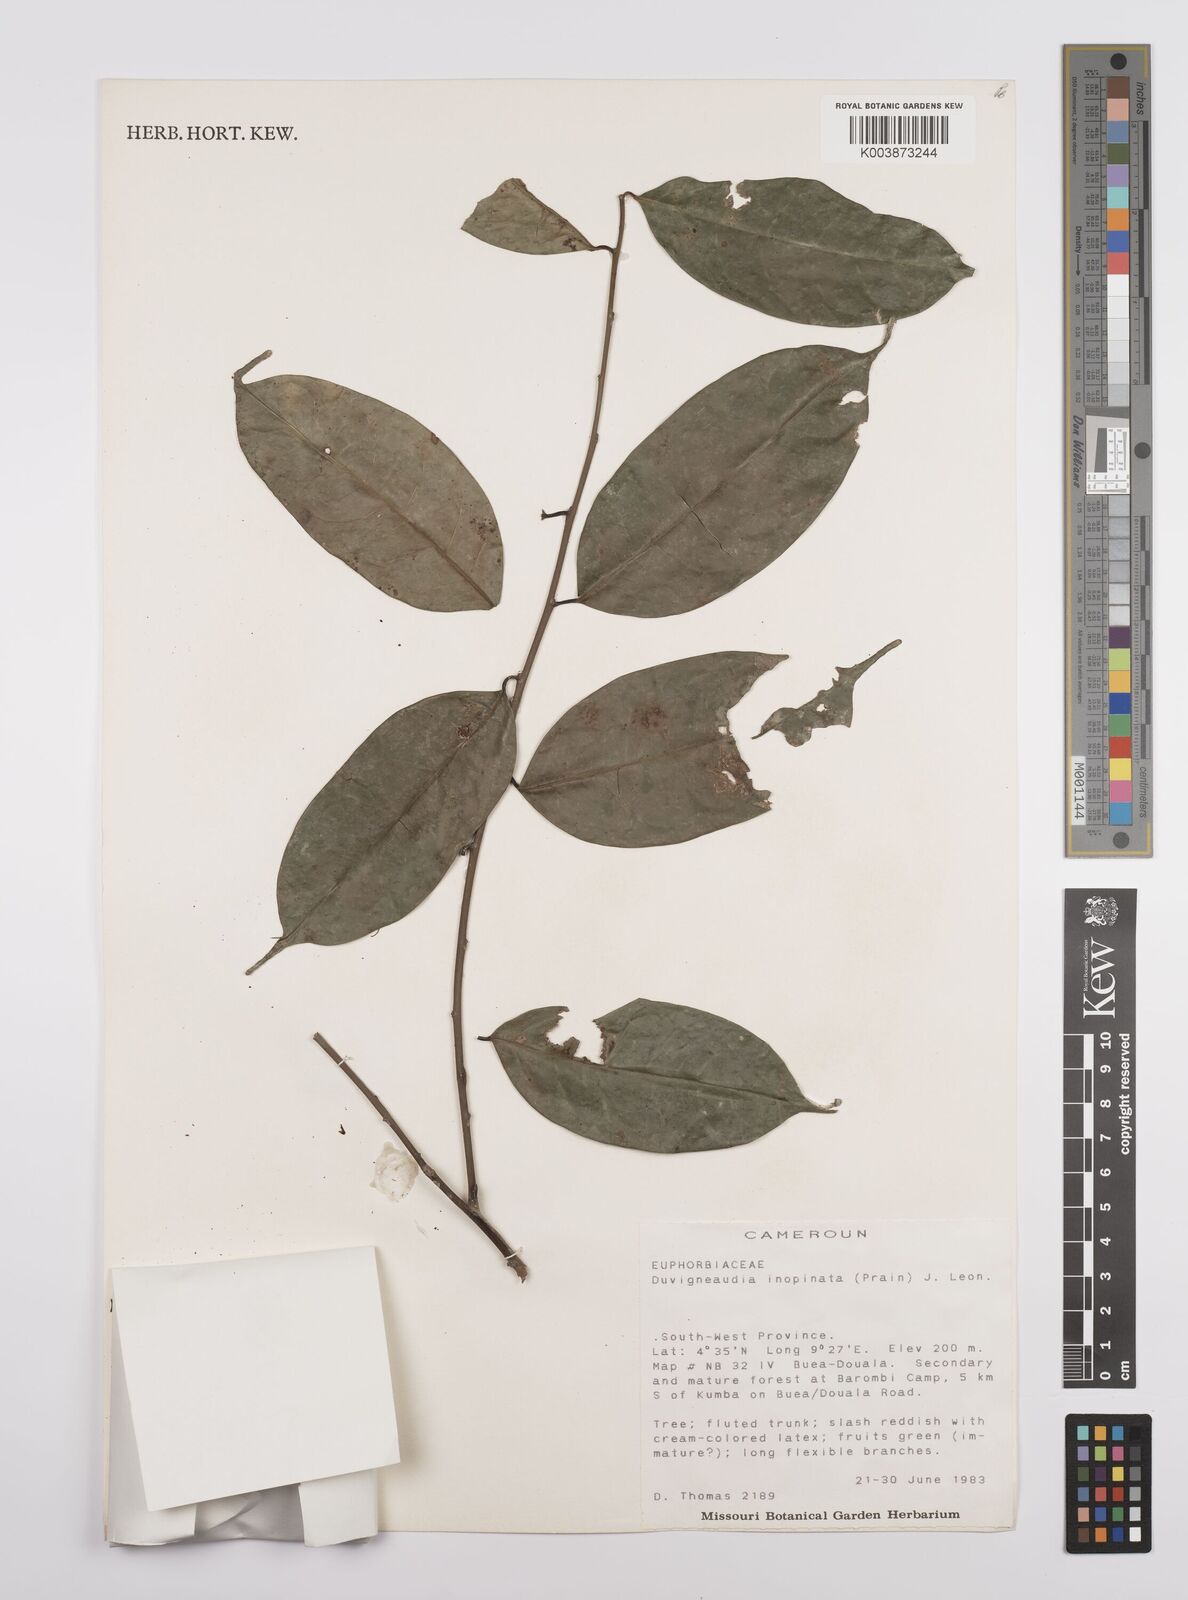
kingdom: Plantae
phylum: Tracheophyta
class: Magnoliopsida
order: Malpighiales
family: Euphorbiaceae
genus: Gymnanthes
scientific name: Gymnanthes inopinata
